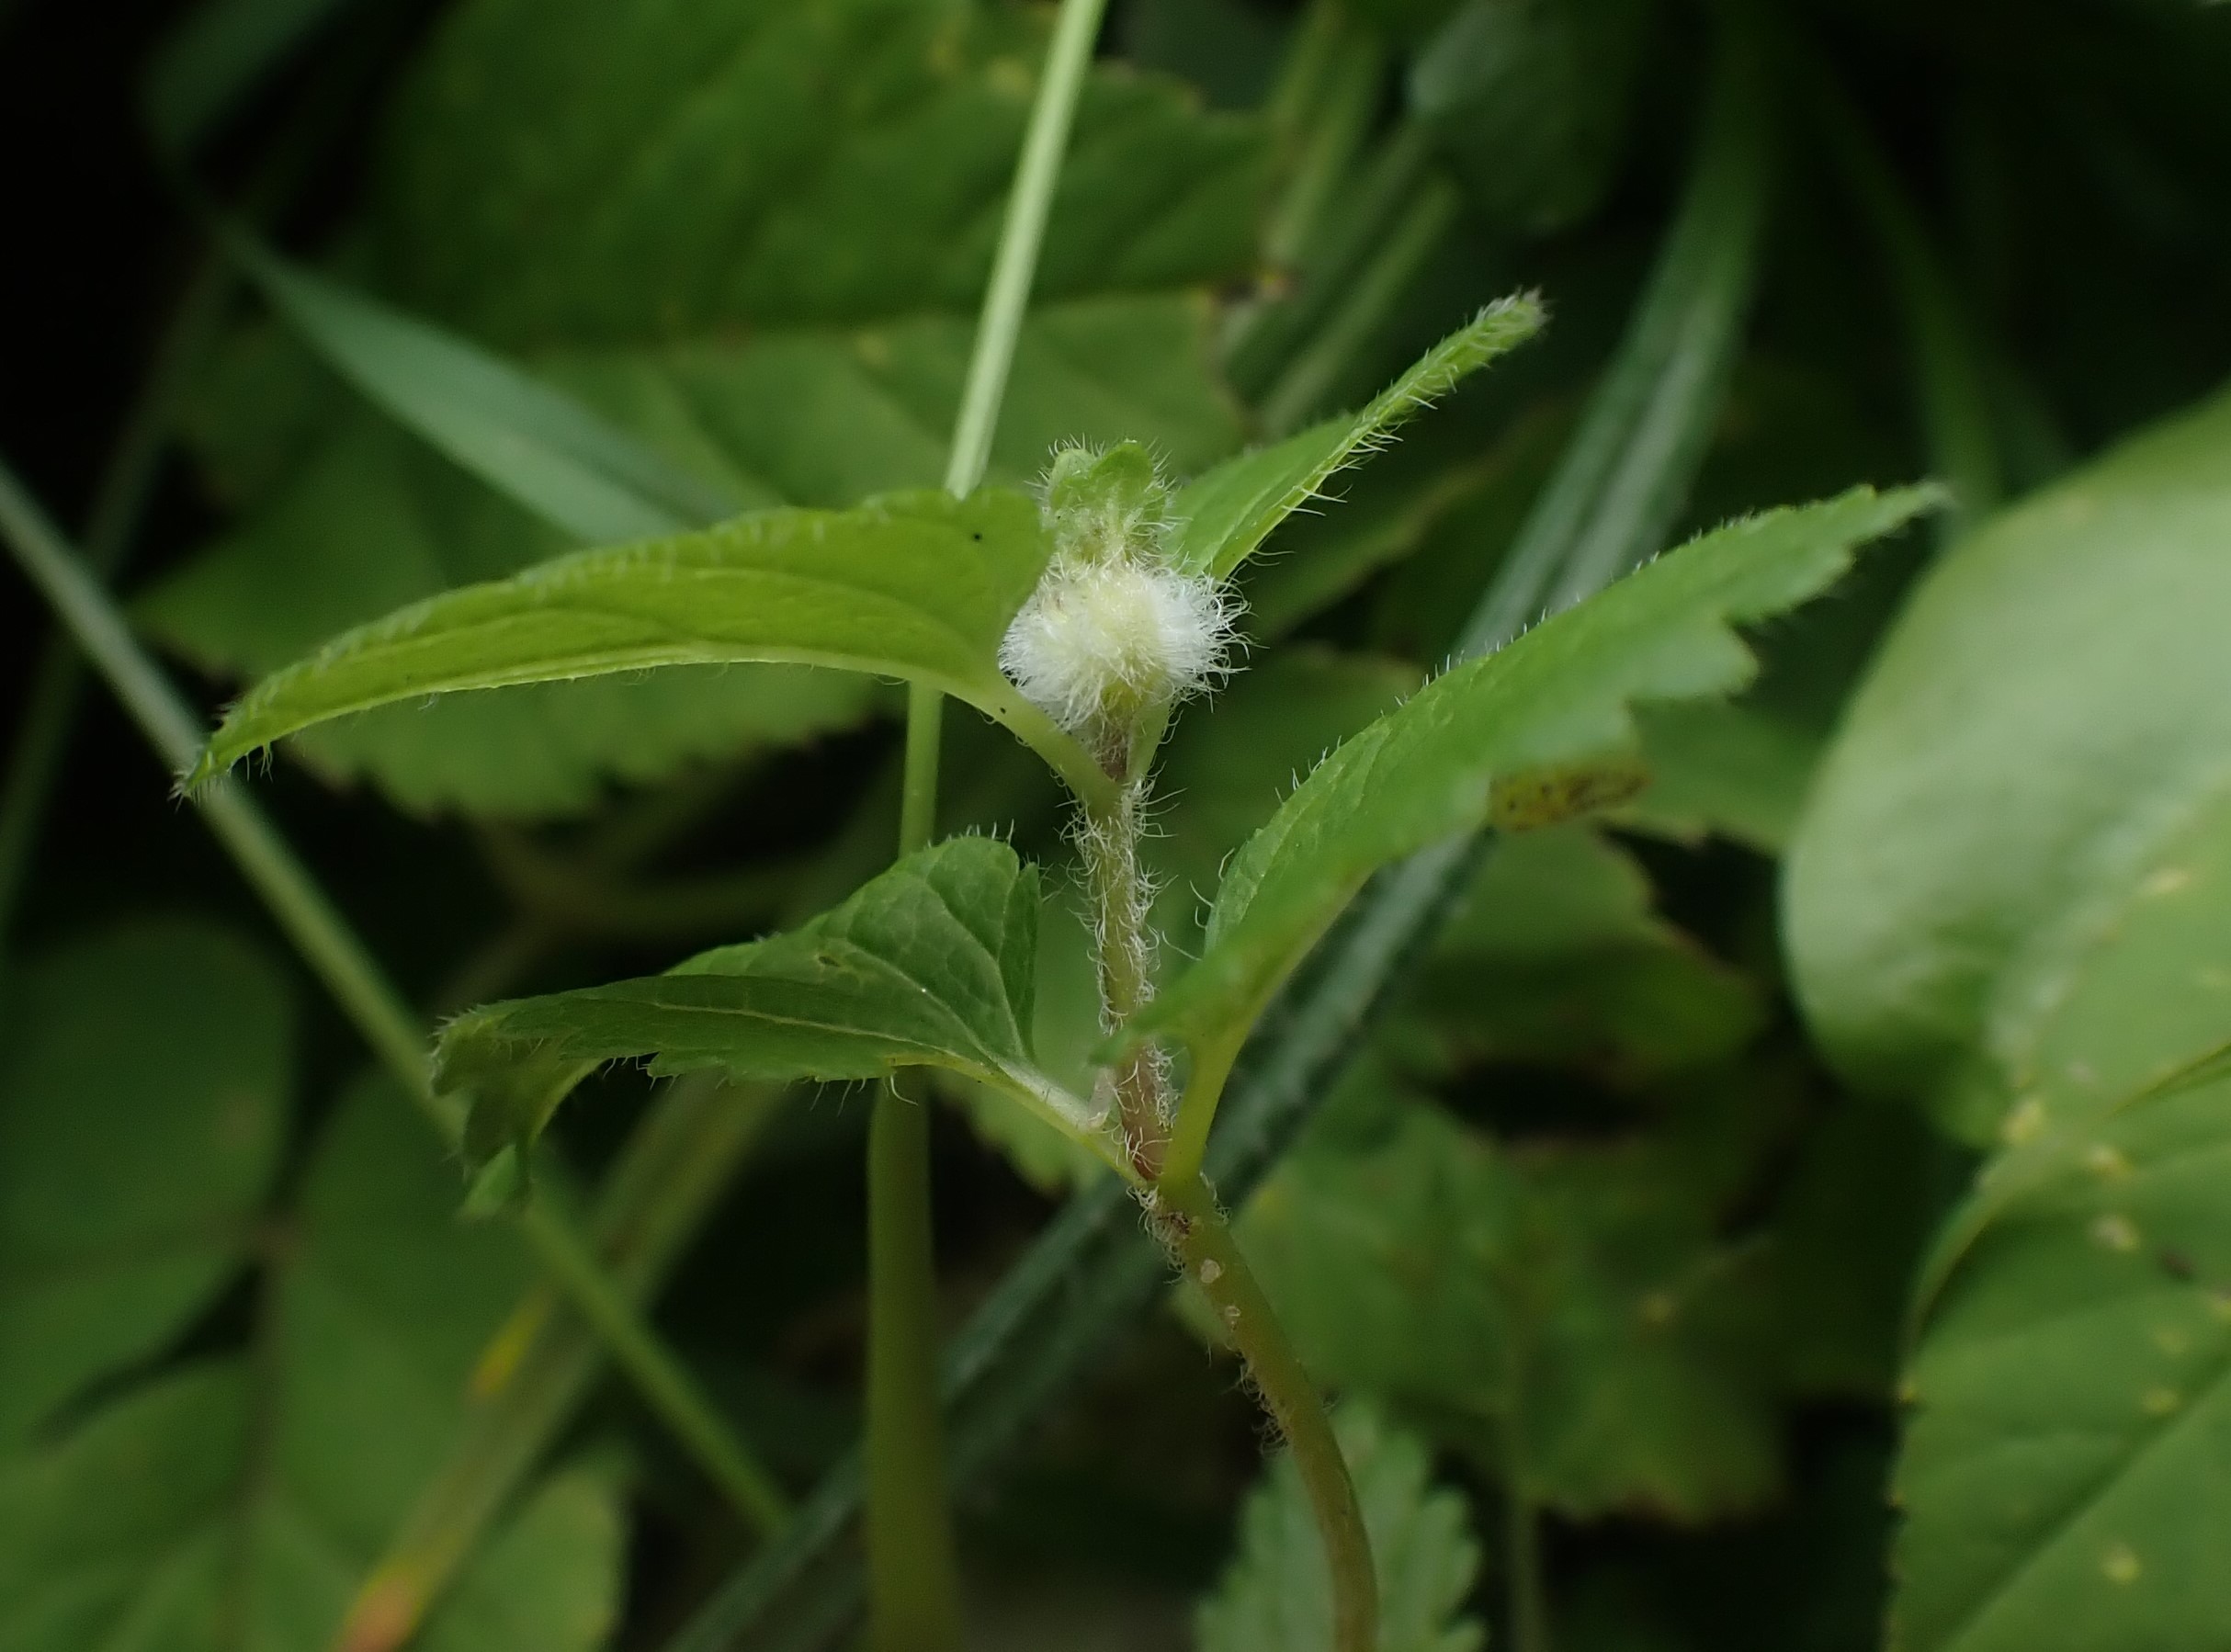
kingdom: Animalia
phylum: Arthropoda
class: Insecta
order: Diptera
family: Cecidomyiidae
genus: Jaapiella
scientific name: Jaapiella veronicae
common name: Ærenprisgalmyg
